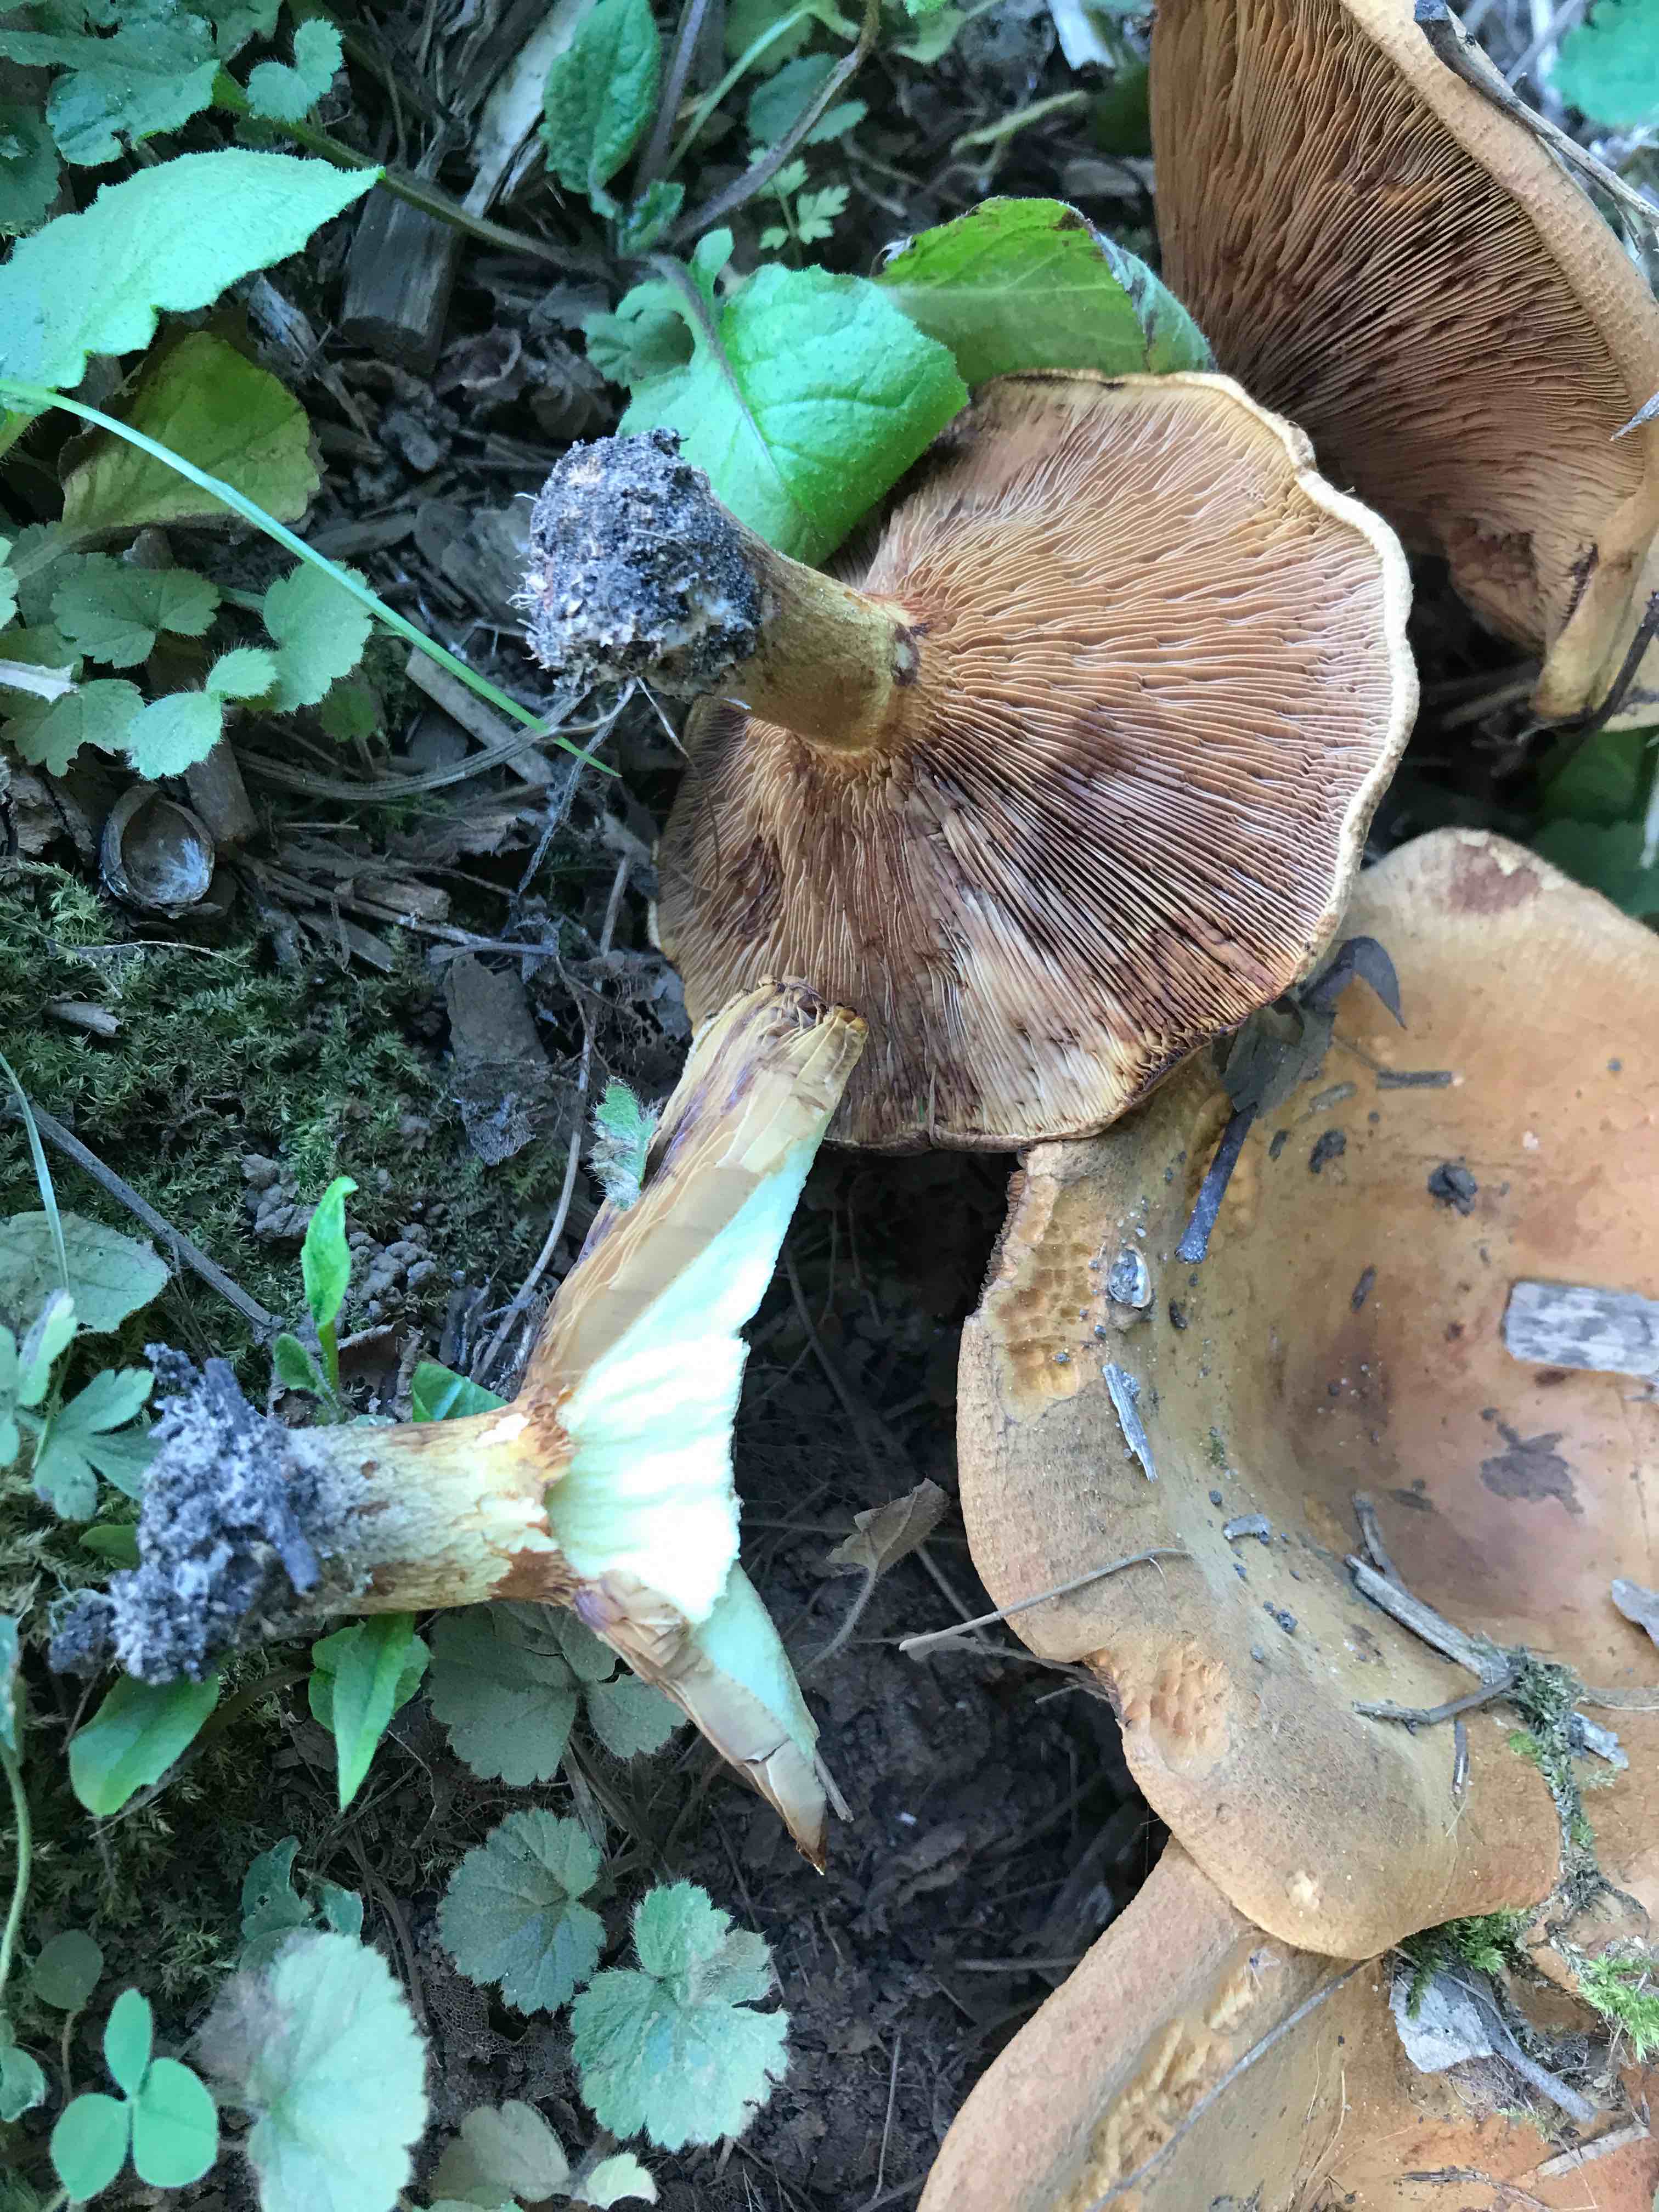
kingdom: Fungi
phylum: Basidiomycota
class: Agaricomycetes
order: Boletales
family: Paxillaceae
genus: Paxillus
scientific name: Paxillus rubicundulus
